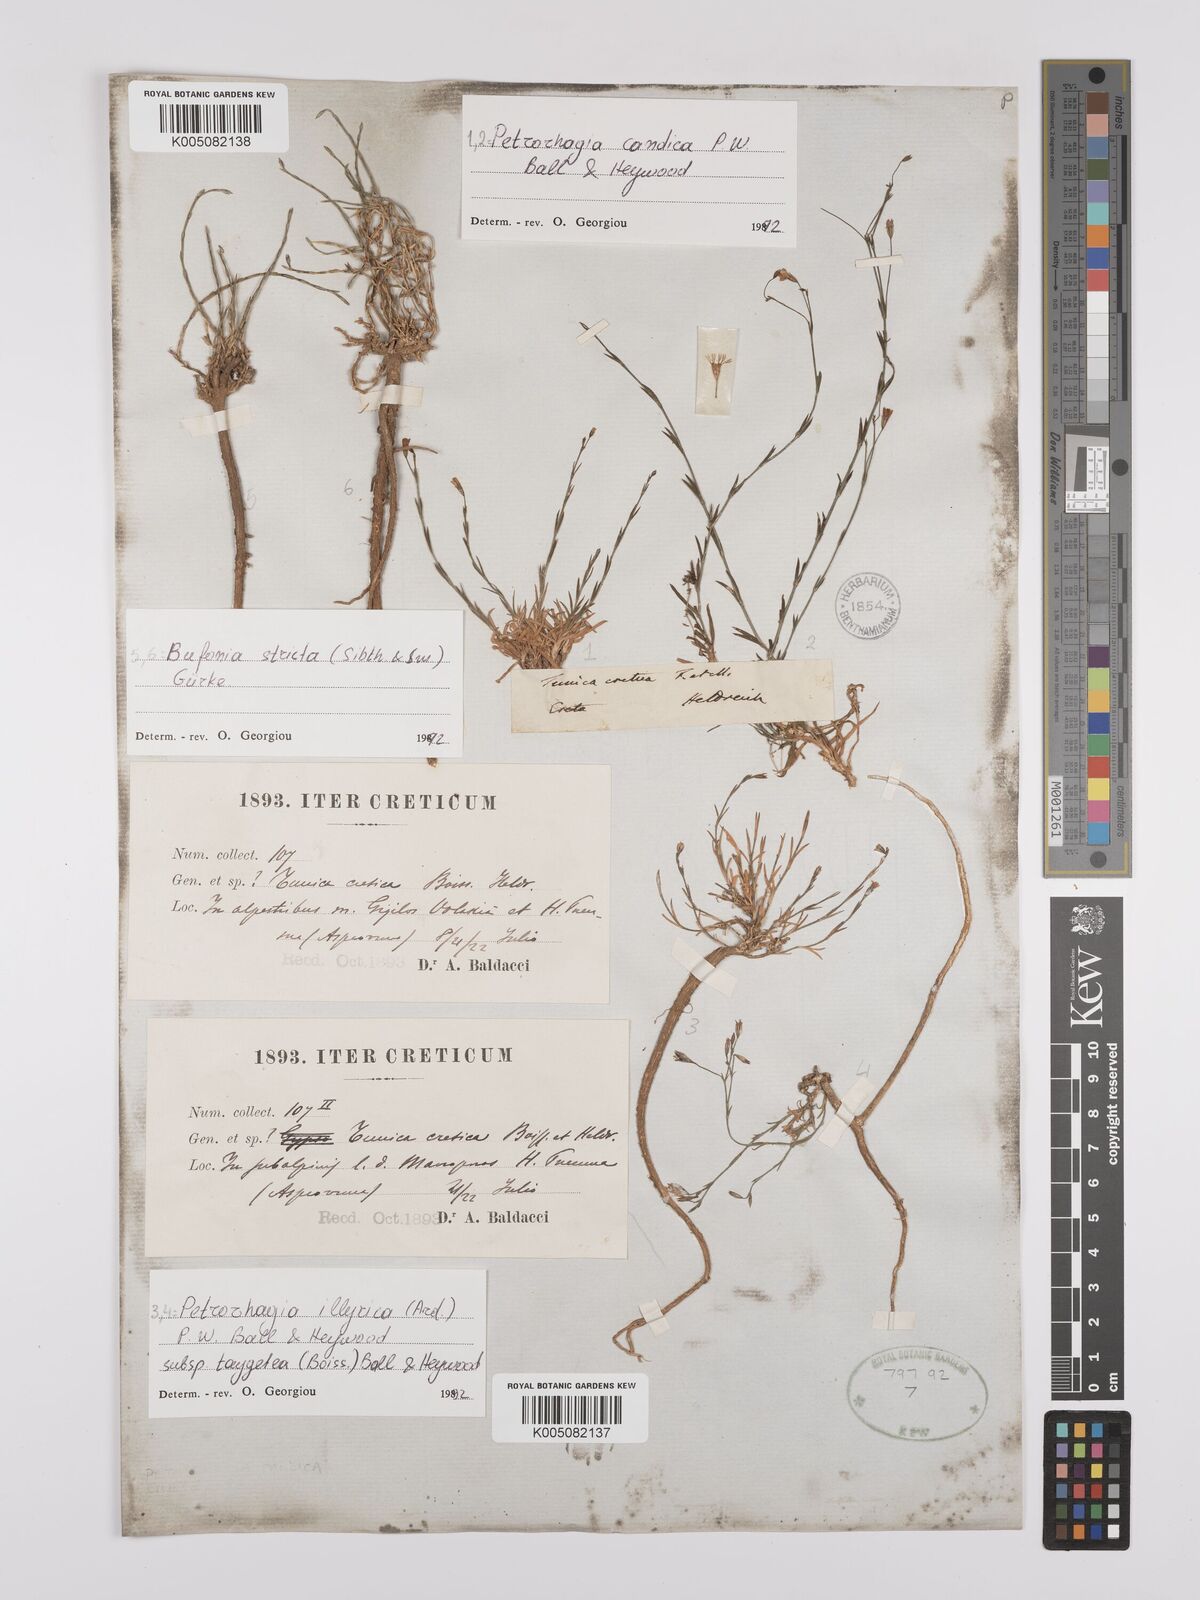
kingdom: Plantae
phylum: Tracheophyta
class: Magnoliopsida
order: Caryophyllales
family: Caryophyllaceae
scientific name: Caryophyllaceae
